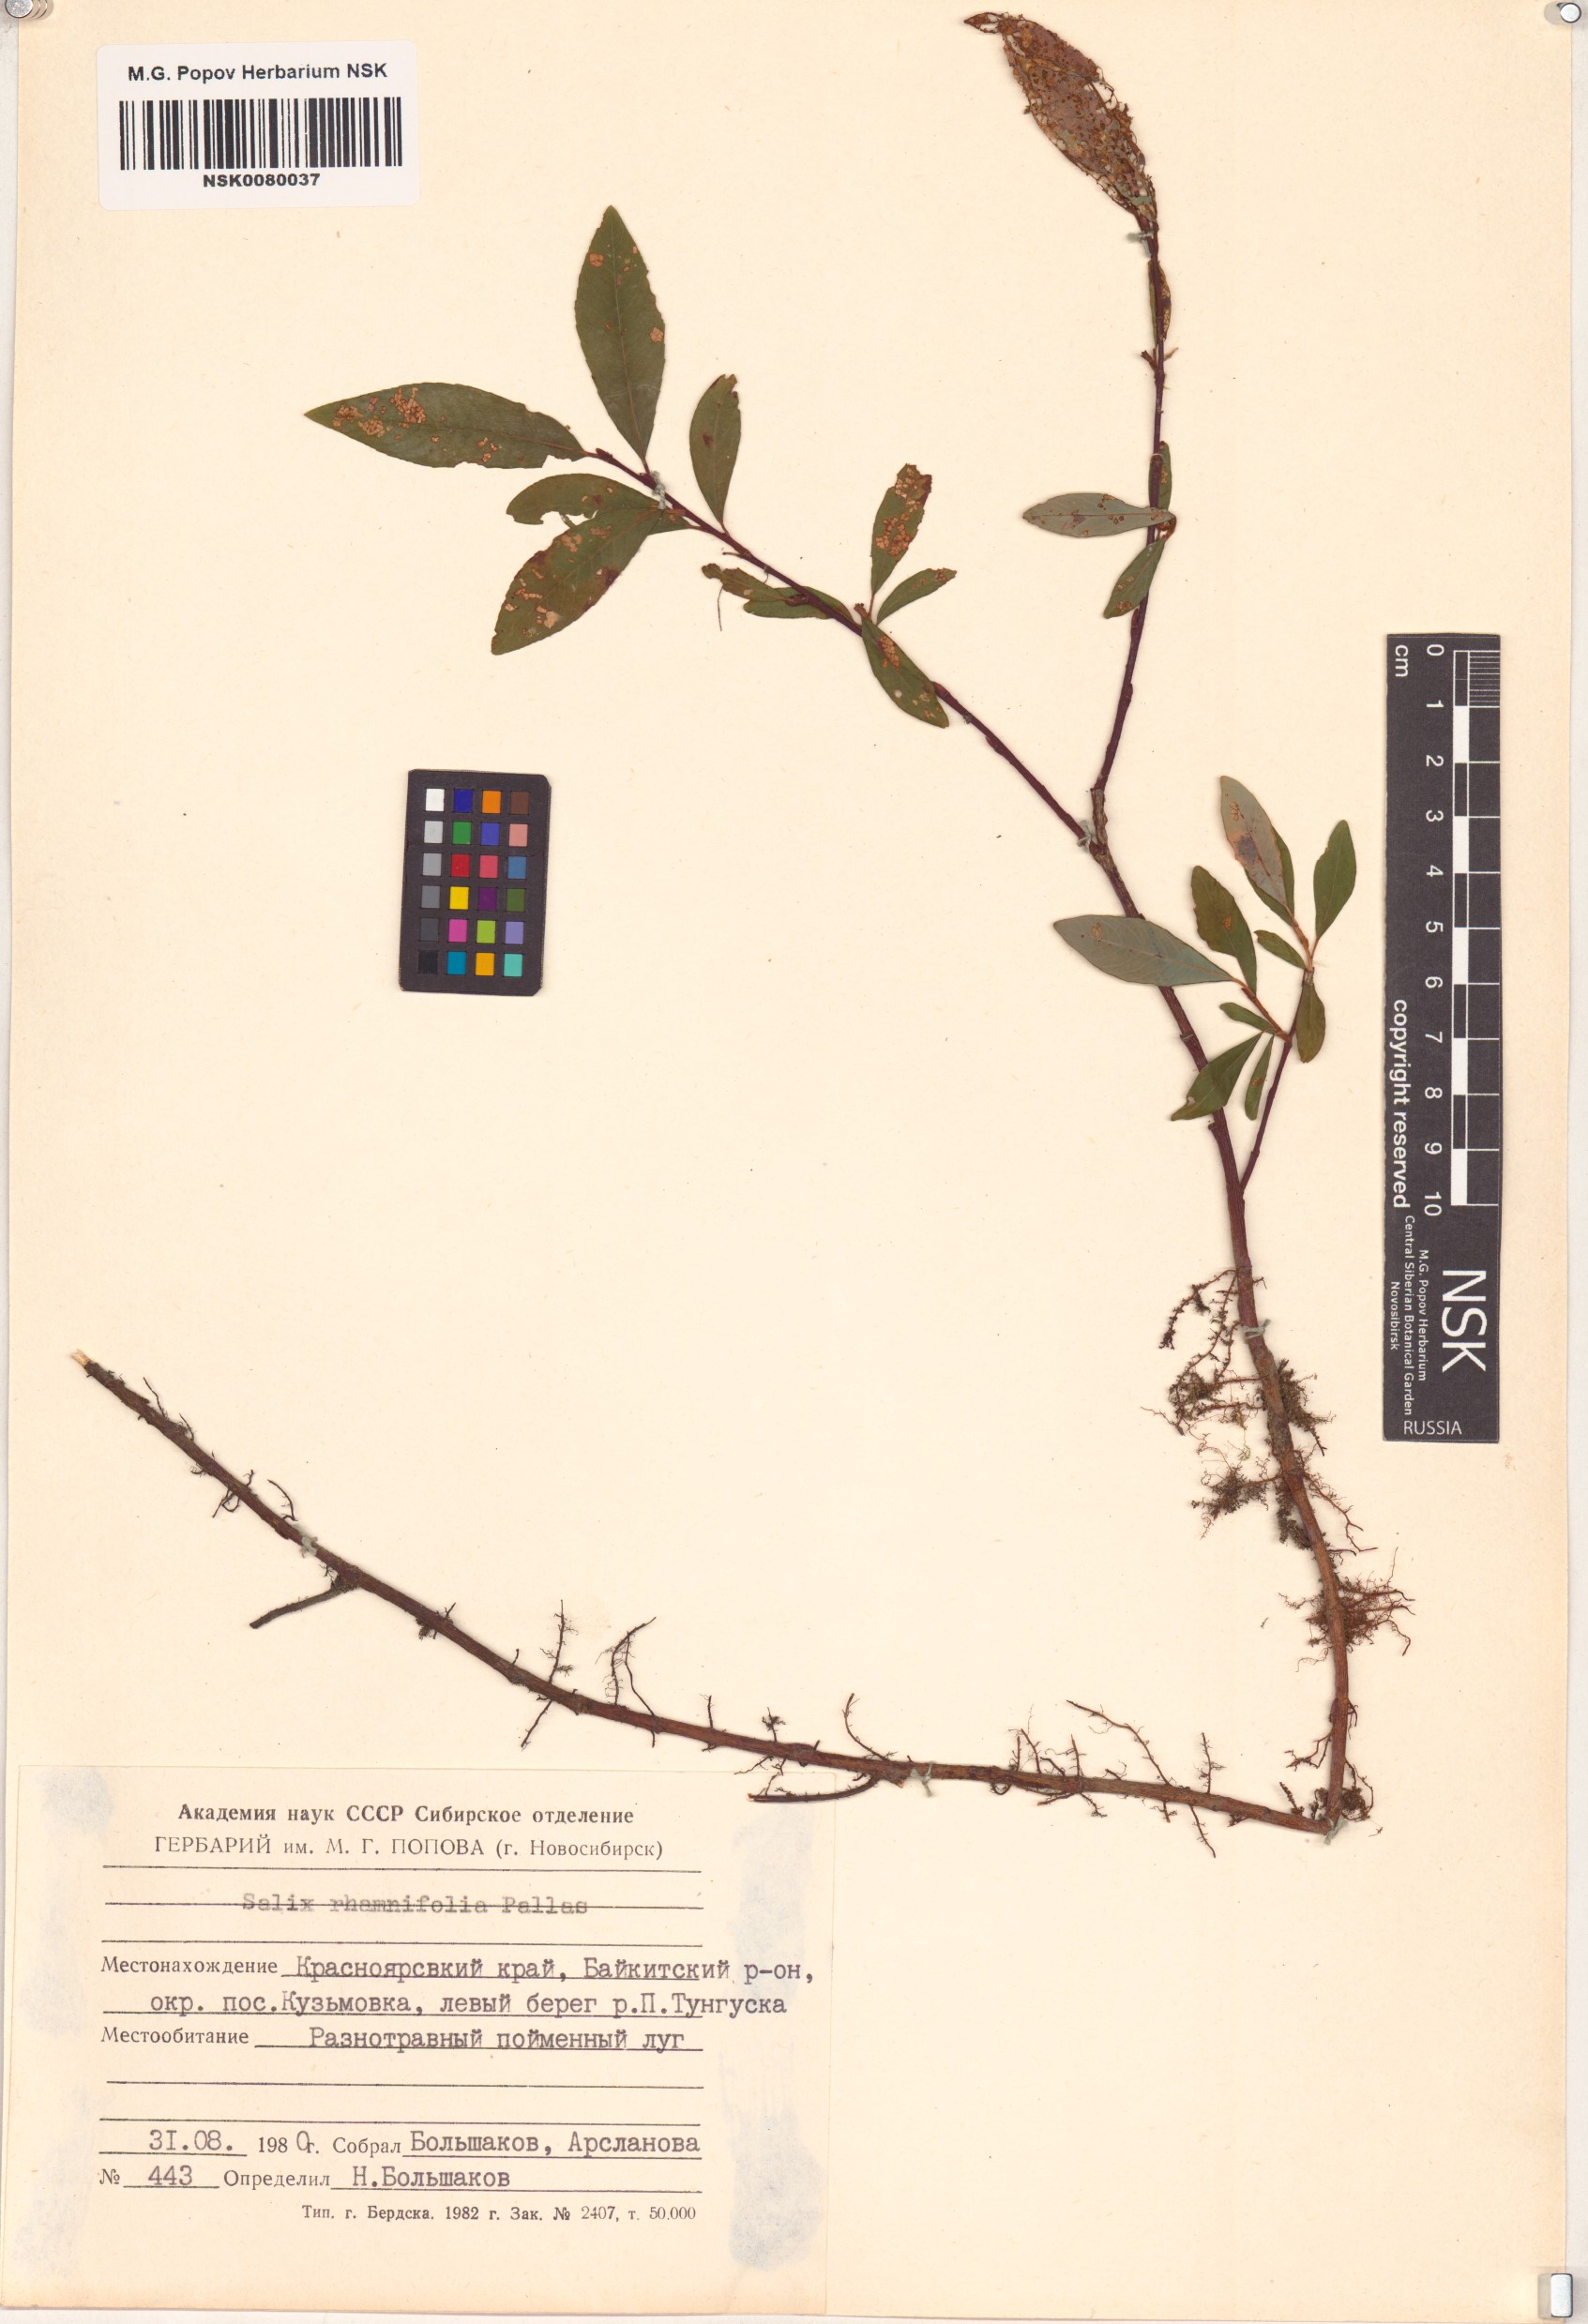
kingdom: Plantae
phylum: Tracheophyta
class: Magnoliopsida
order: Malpighiales
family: Salicaceae
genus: Salix
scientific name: Salix rhamnifolia
